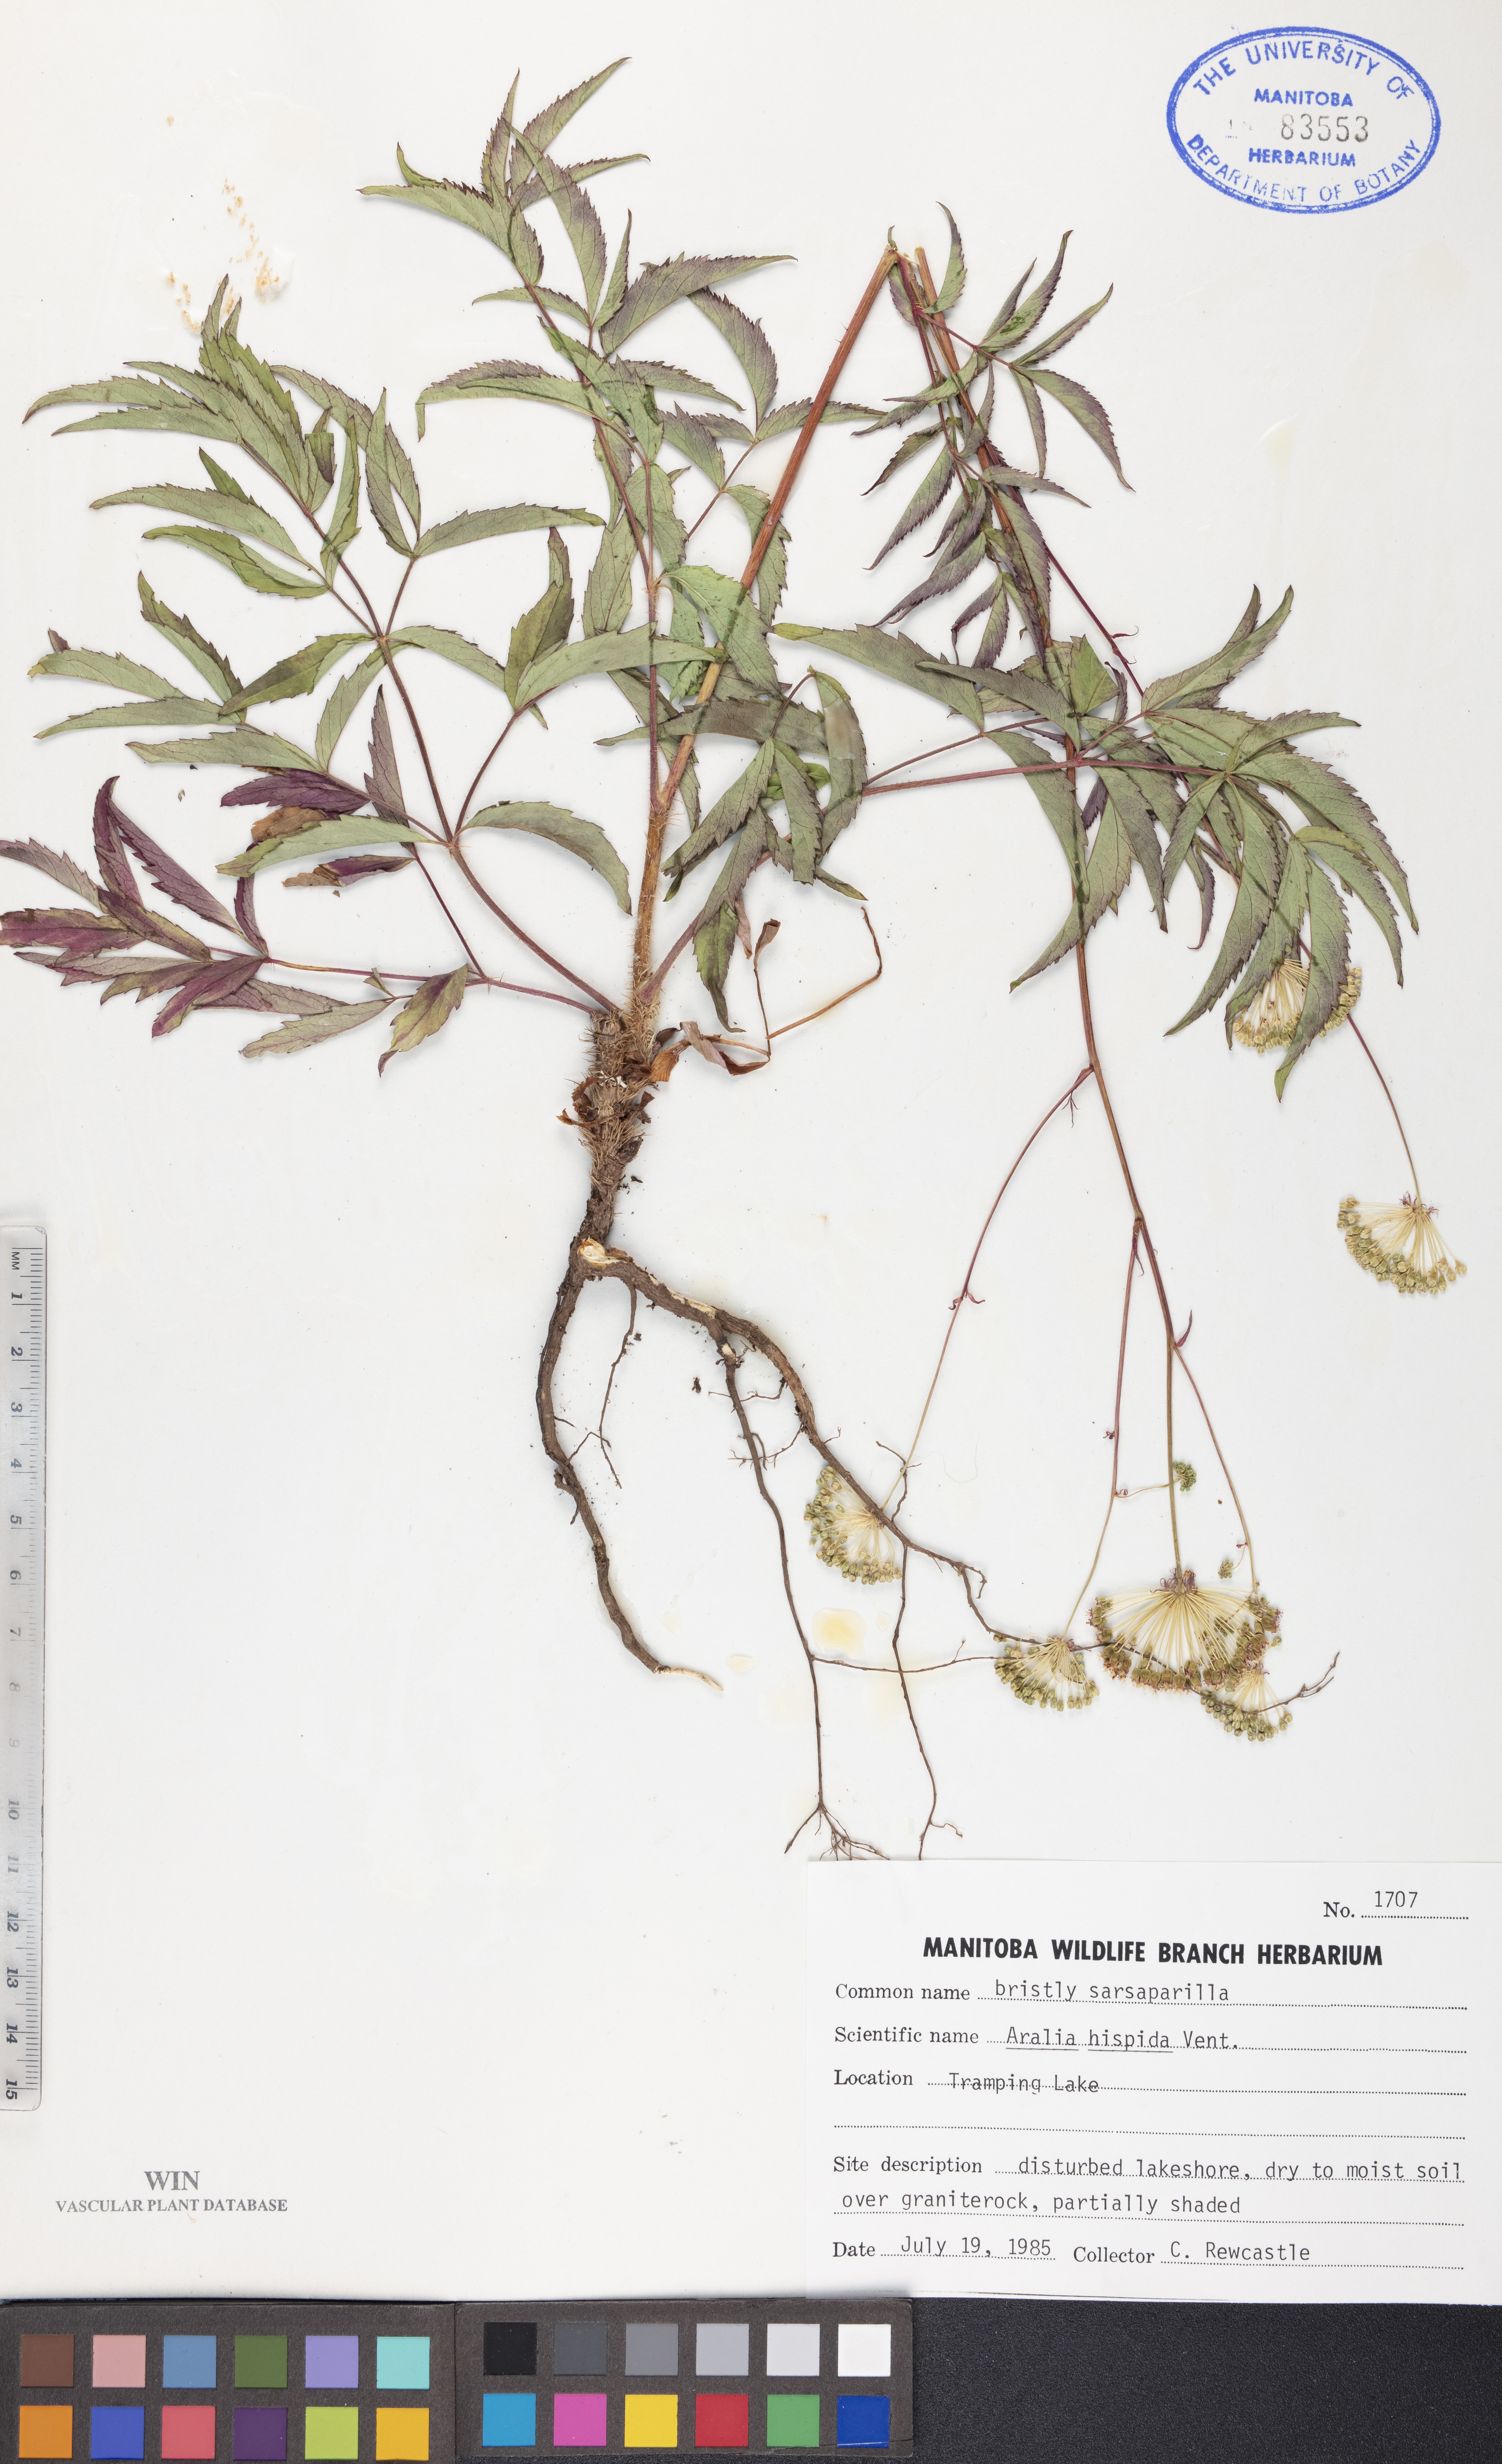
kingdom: Plantae
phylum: Tracheophyta
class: Magnoliopsida
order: Apiales
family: Araliaceae
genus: Aralia
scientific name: Aralia hispida
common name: Bristly sarsaparilla
